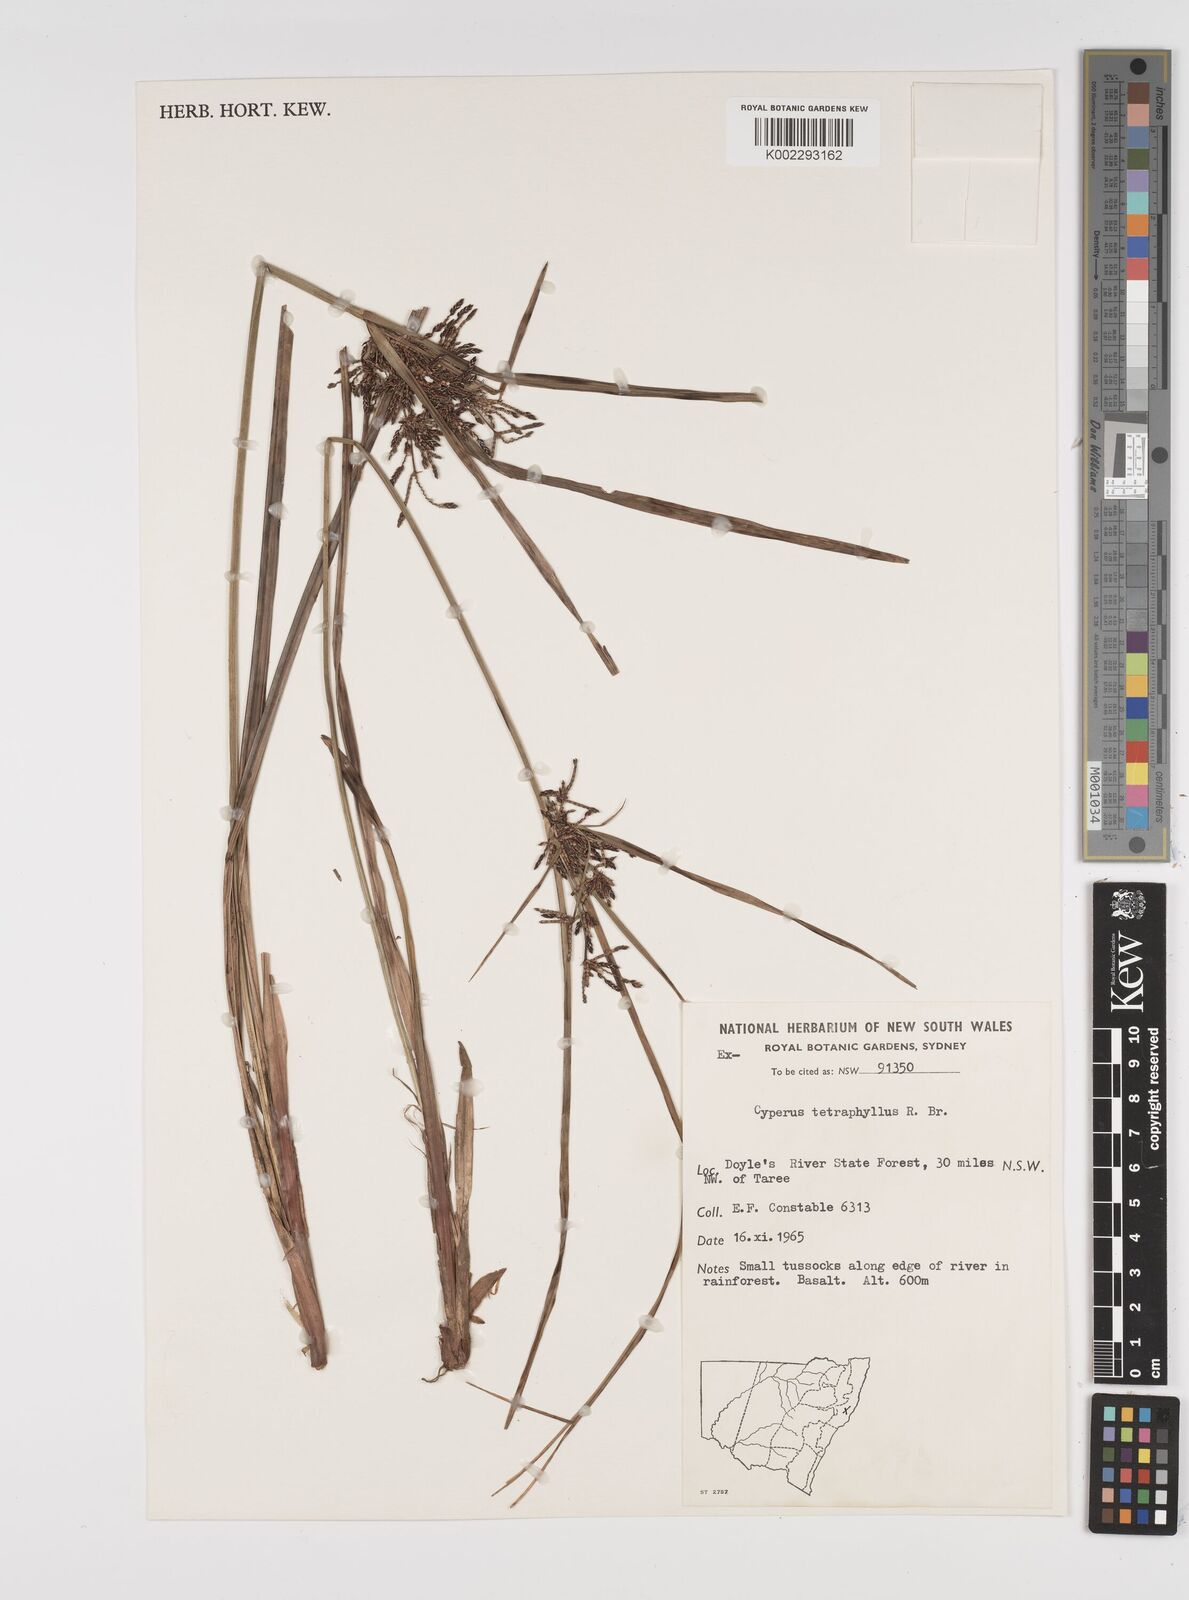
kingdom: Plantae
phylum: Tracheophyta
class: Liliopsida
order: Poales
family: Cyperaceae
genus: Cyperus
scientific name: Cyperus tetraphyllus
